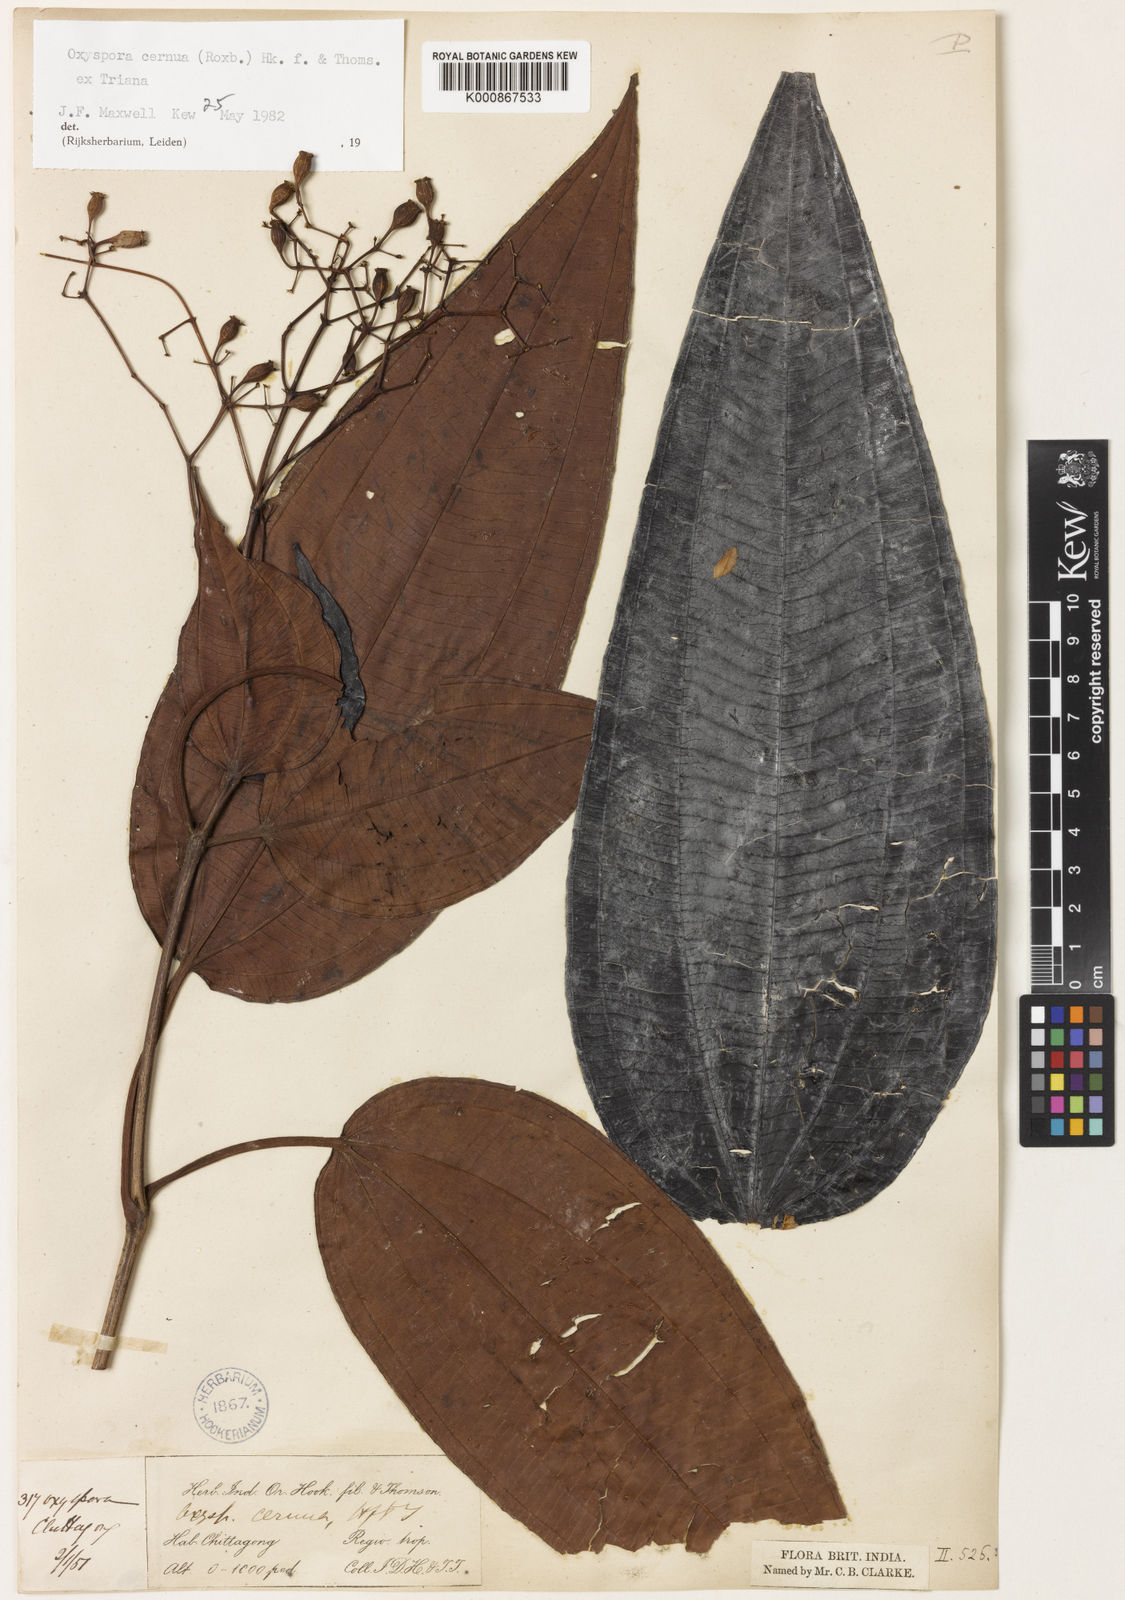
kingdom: Plantae
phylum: Tracheophyta
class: Magnoliopsida
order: Myrtales
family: Melastomataceae
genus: Oxyspora
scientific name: Oxyspora cernua
